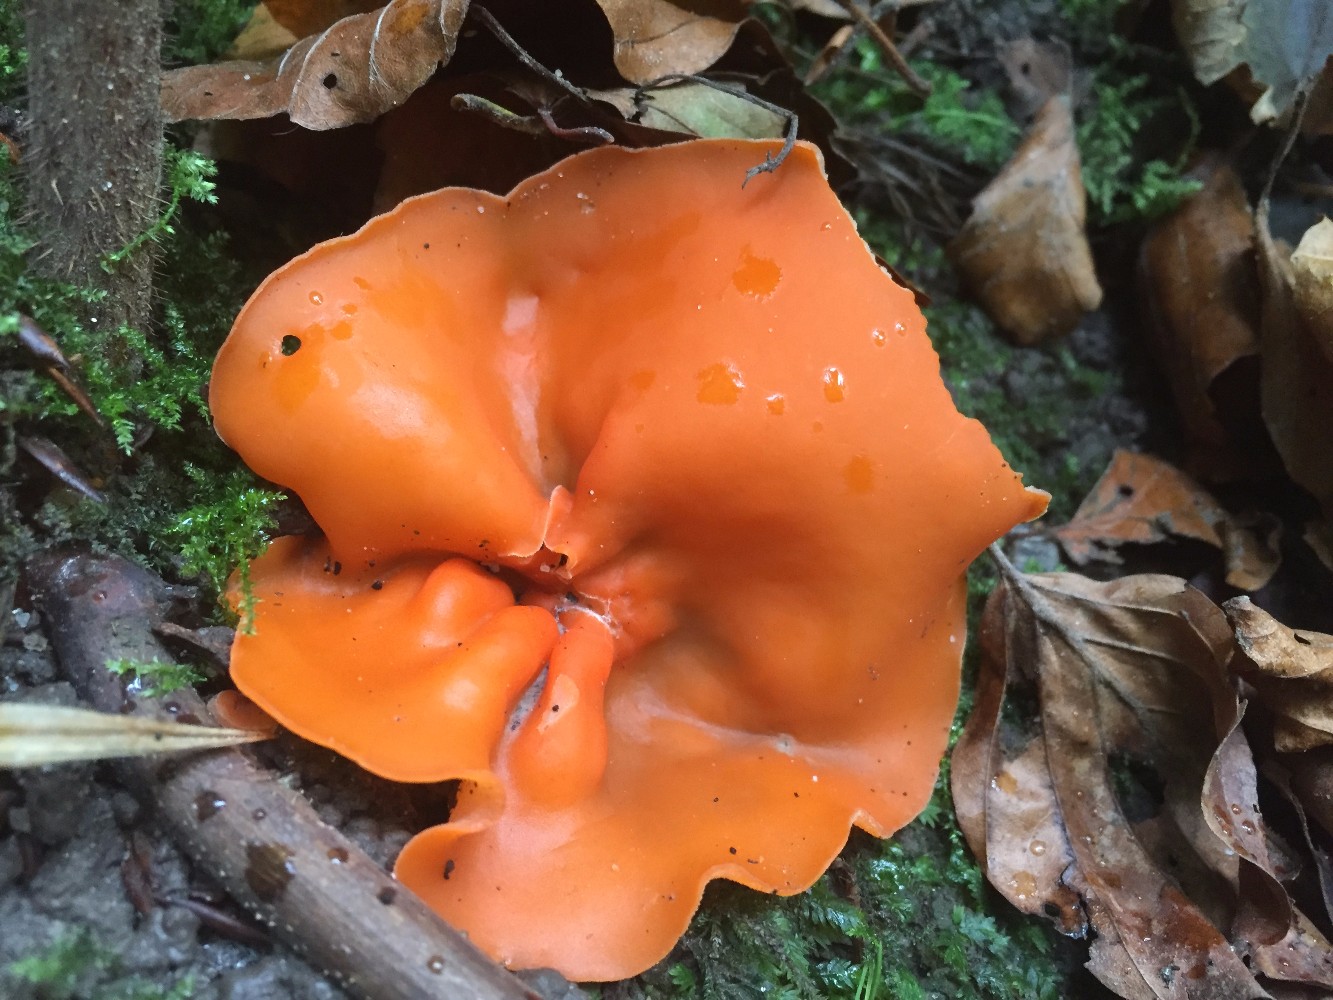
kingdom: Fungi
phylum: Ascomycota
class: Pezizomycetes
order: Pezizales
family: Pyronemataceae
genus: Aleuria
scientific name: Aleuria aurantia
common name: almindelig orangebæger
